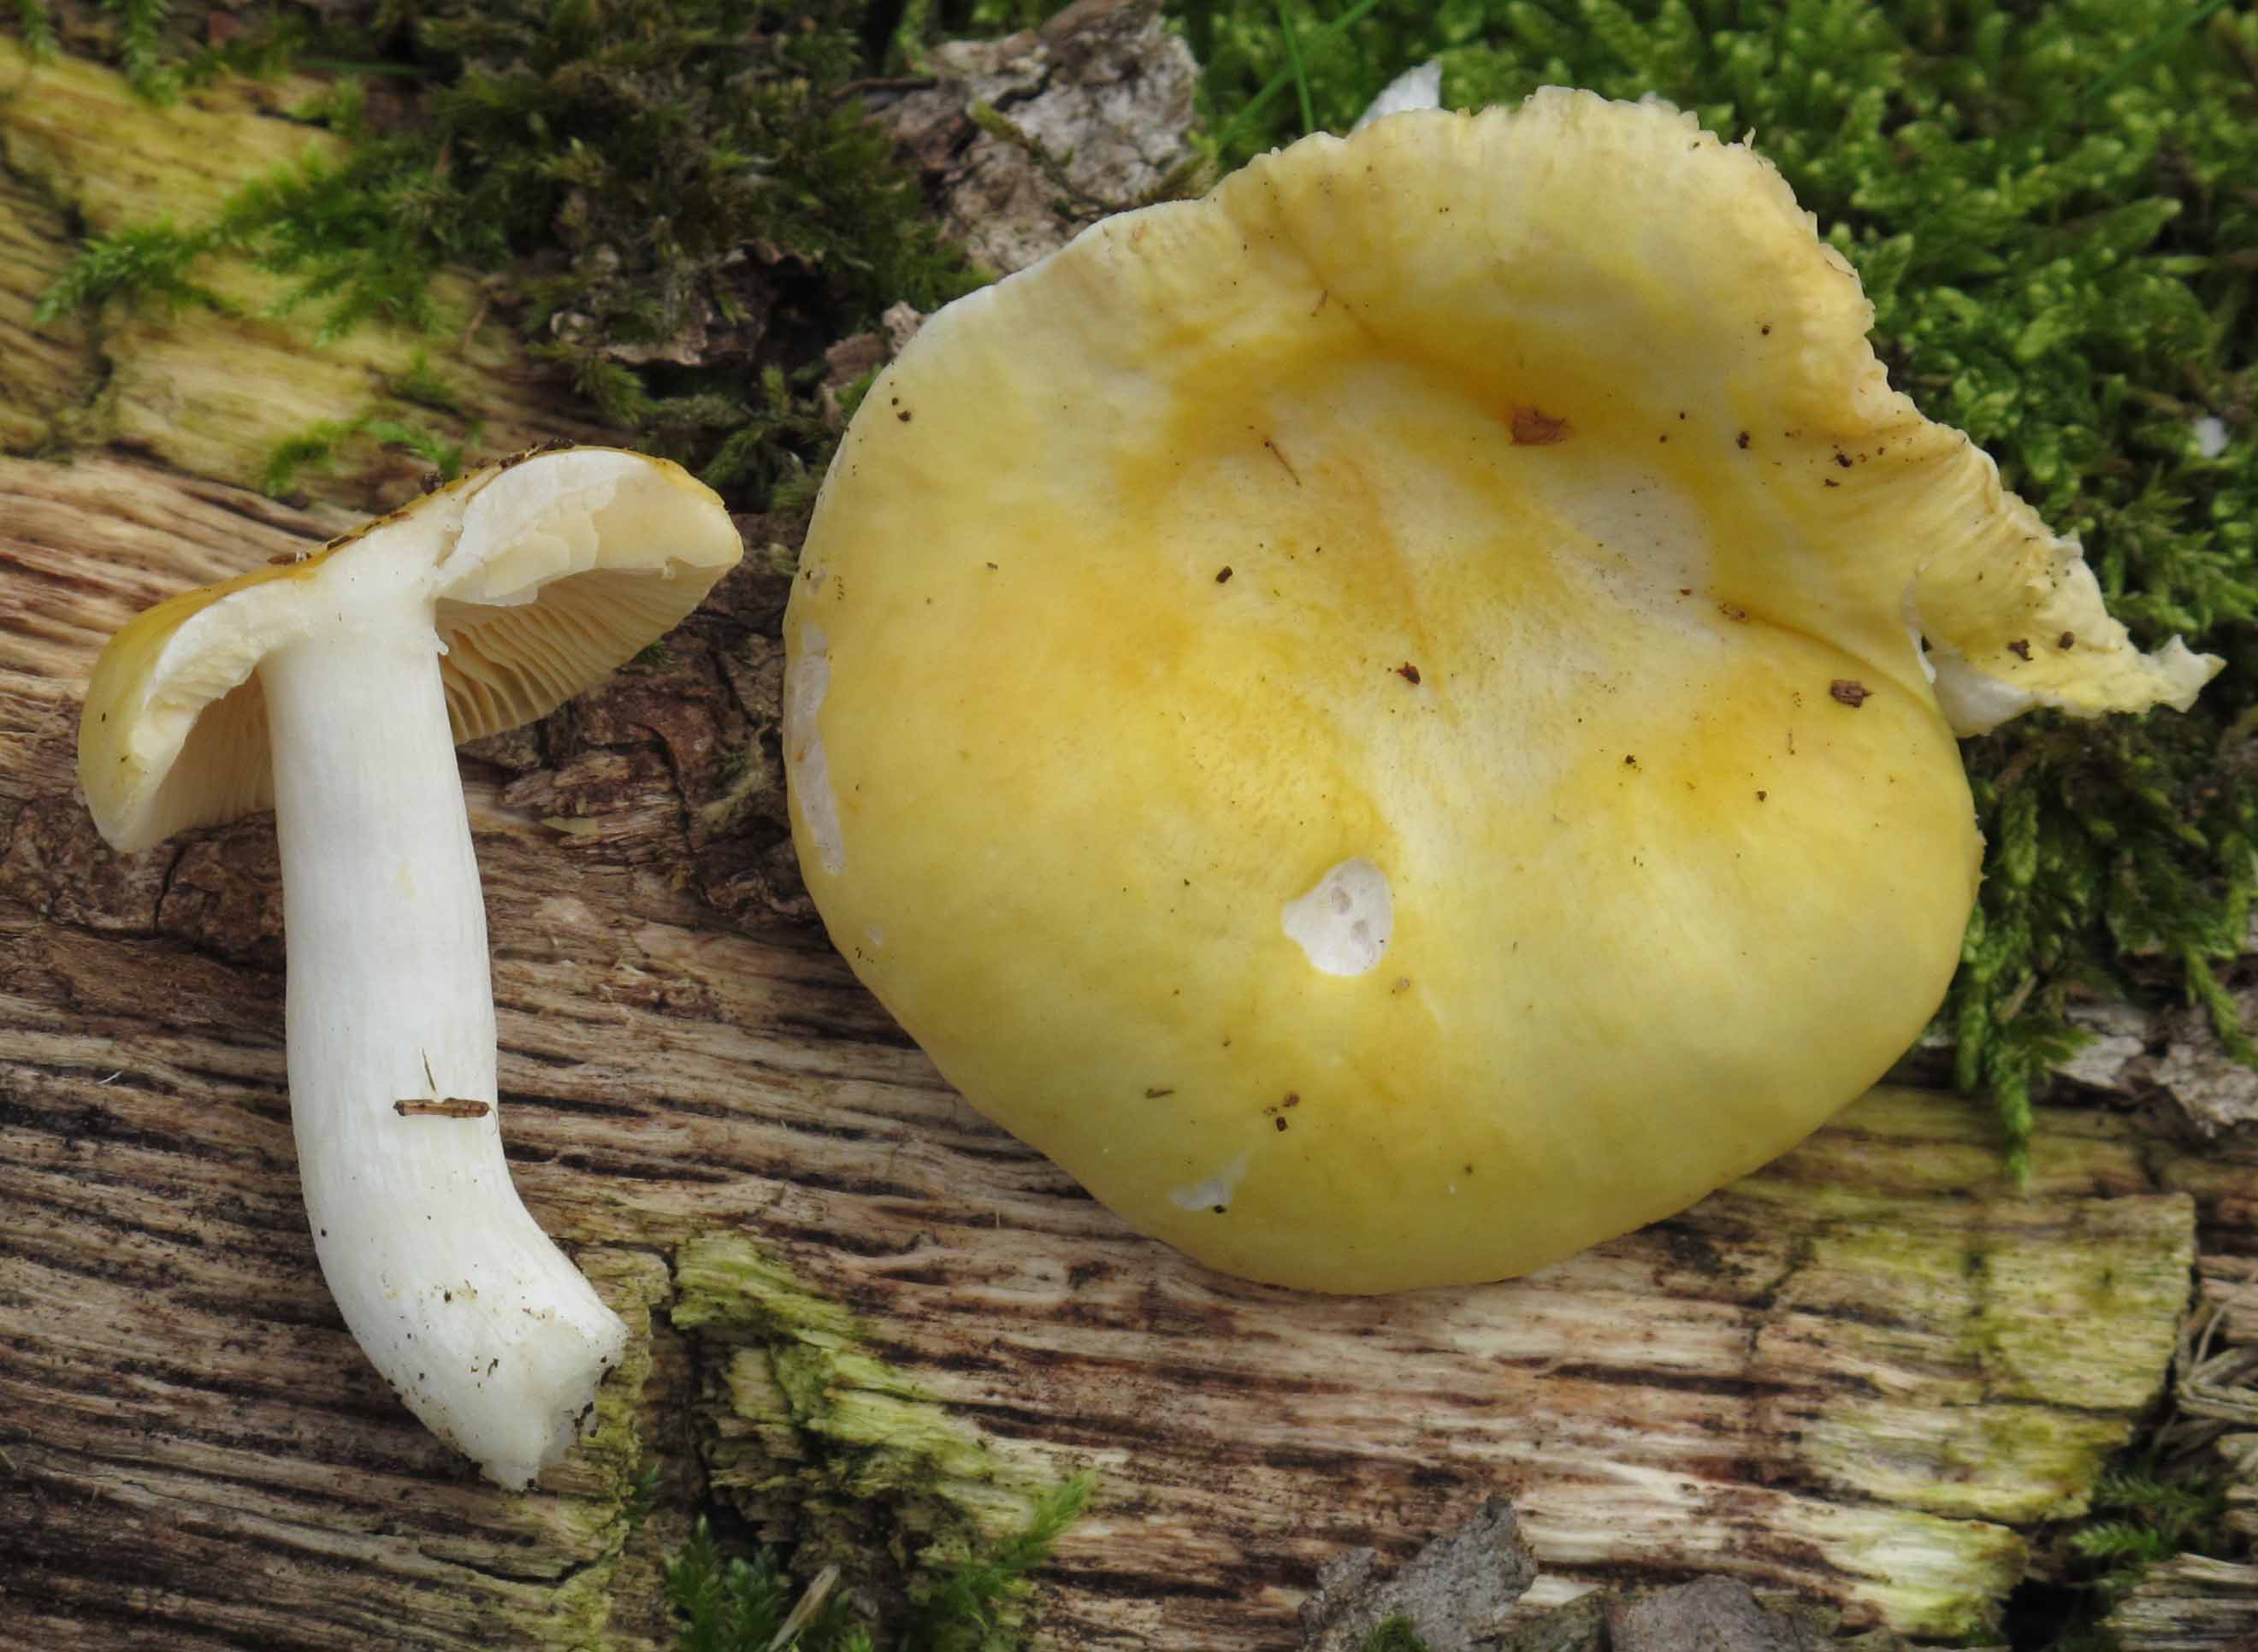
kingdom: Fungi
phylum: Basidiomycota
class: Agaricomycetes
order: Russulales
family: Russulaceae
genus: Russula
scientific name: Russula risigallina
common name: abrikos-skørhat
